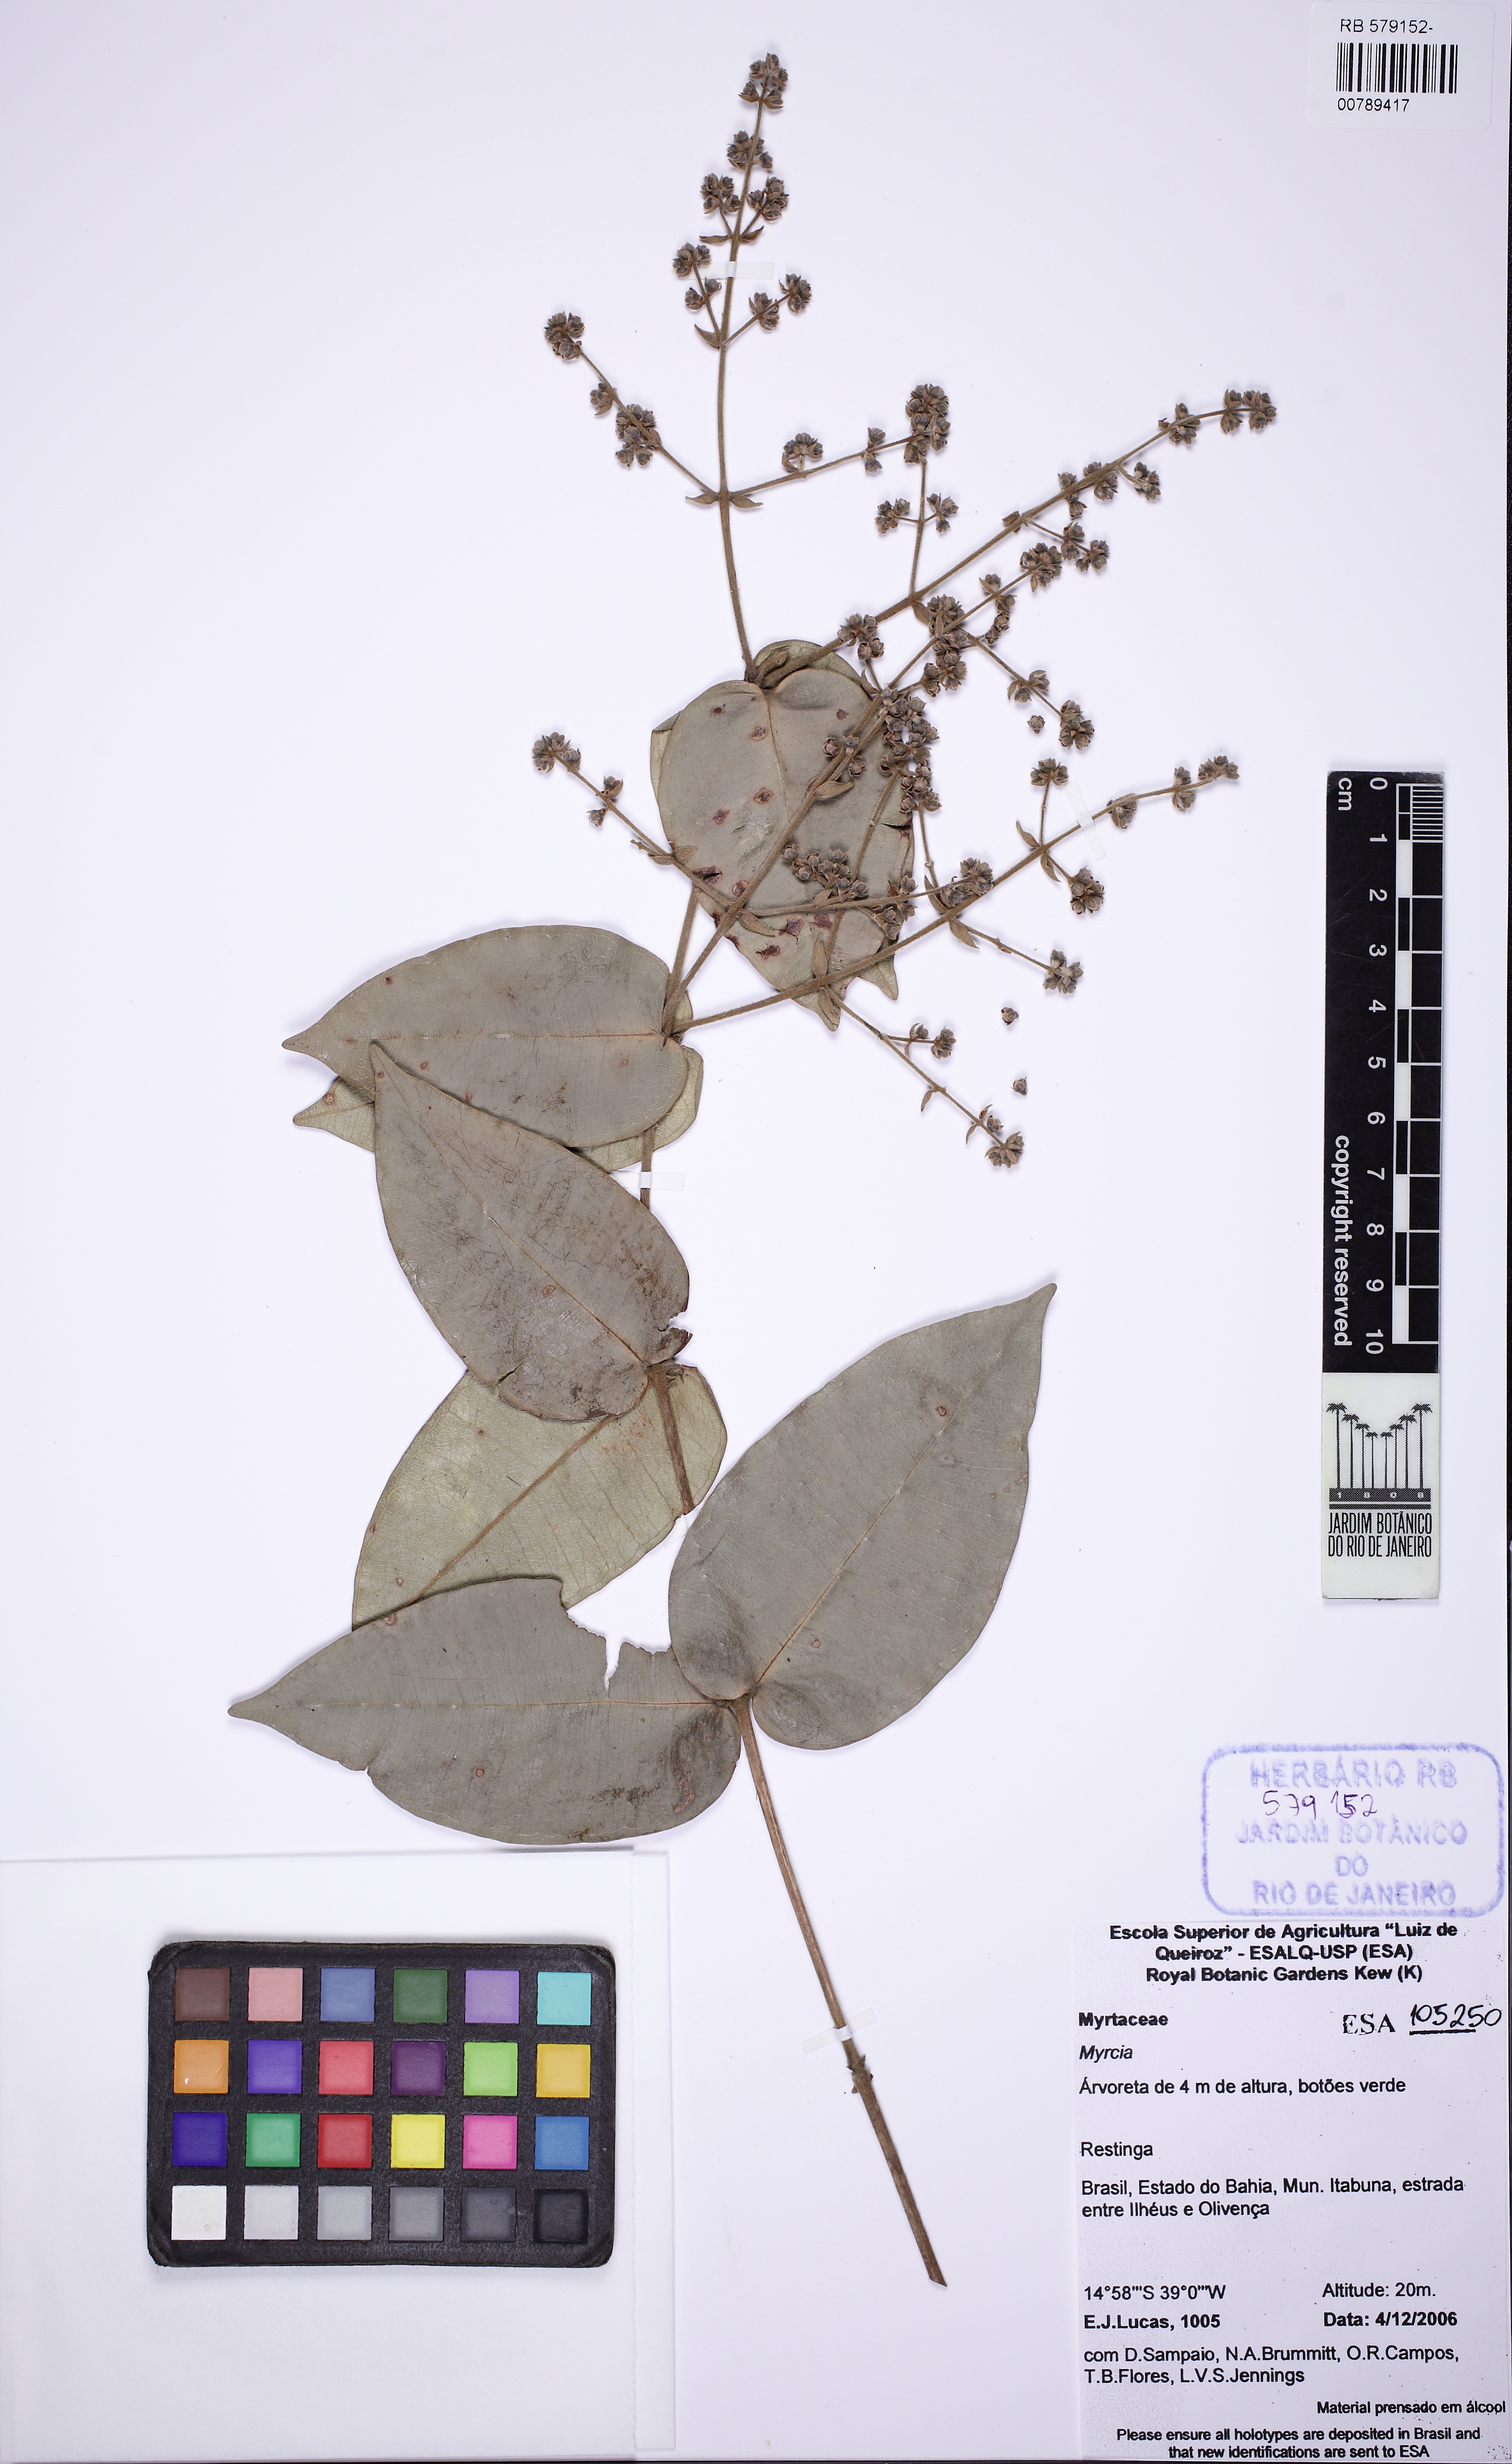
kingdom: Plantae
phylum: Tracheophyta
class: Magnoliopsida
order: Myrtales
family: Myrtaceae
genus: Myrcia
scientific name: Myrcia salzmannii
